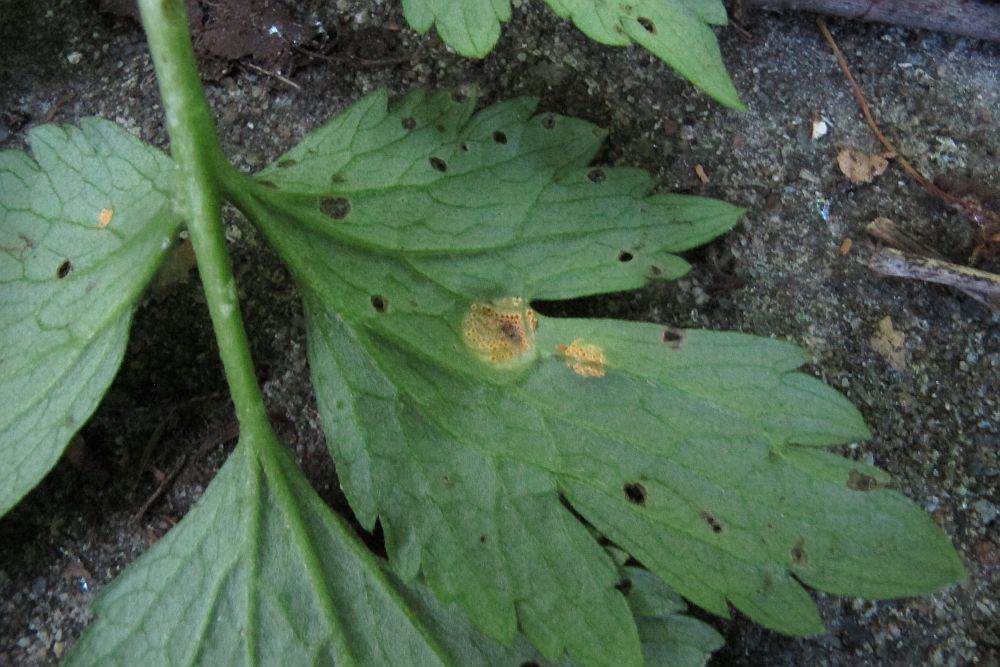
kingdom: Fungi
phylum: Basidiomycota
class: Pucciniomycetes
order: Pucciniales
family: Pucciniaceae
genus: Uromyces
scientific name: Uromyces dactylidis
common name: ranunkel-encellerust
